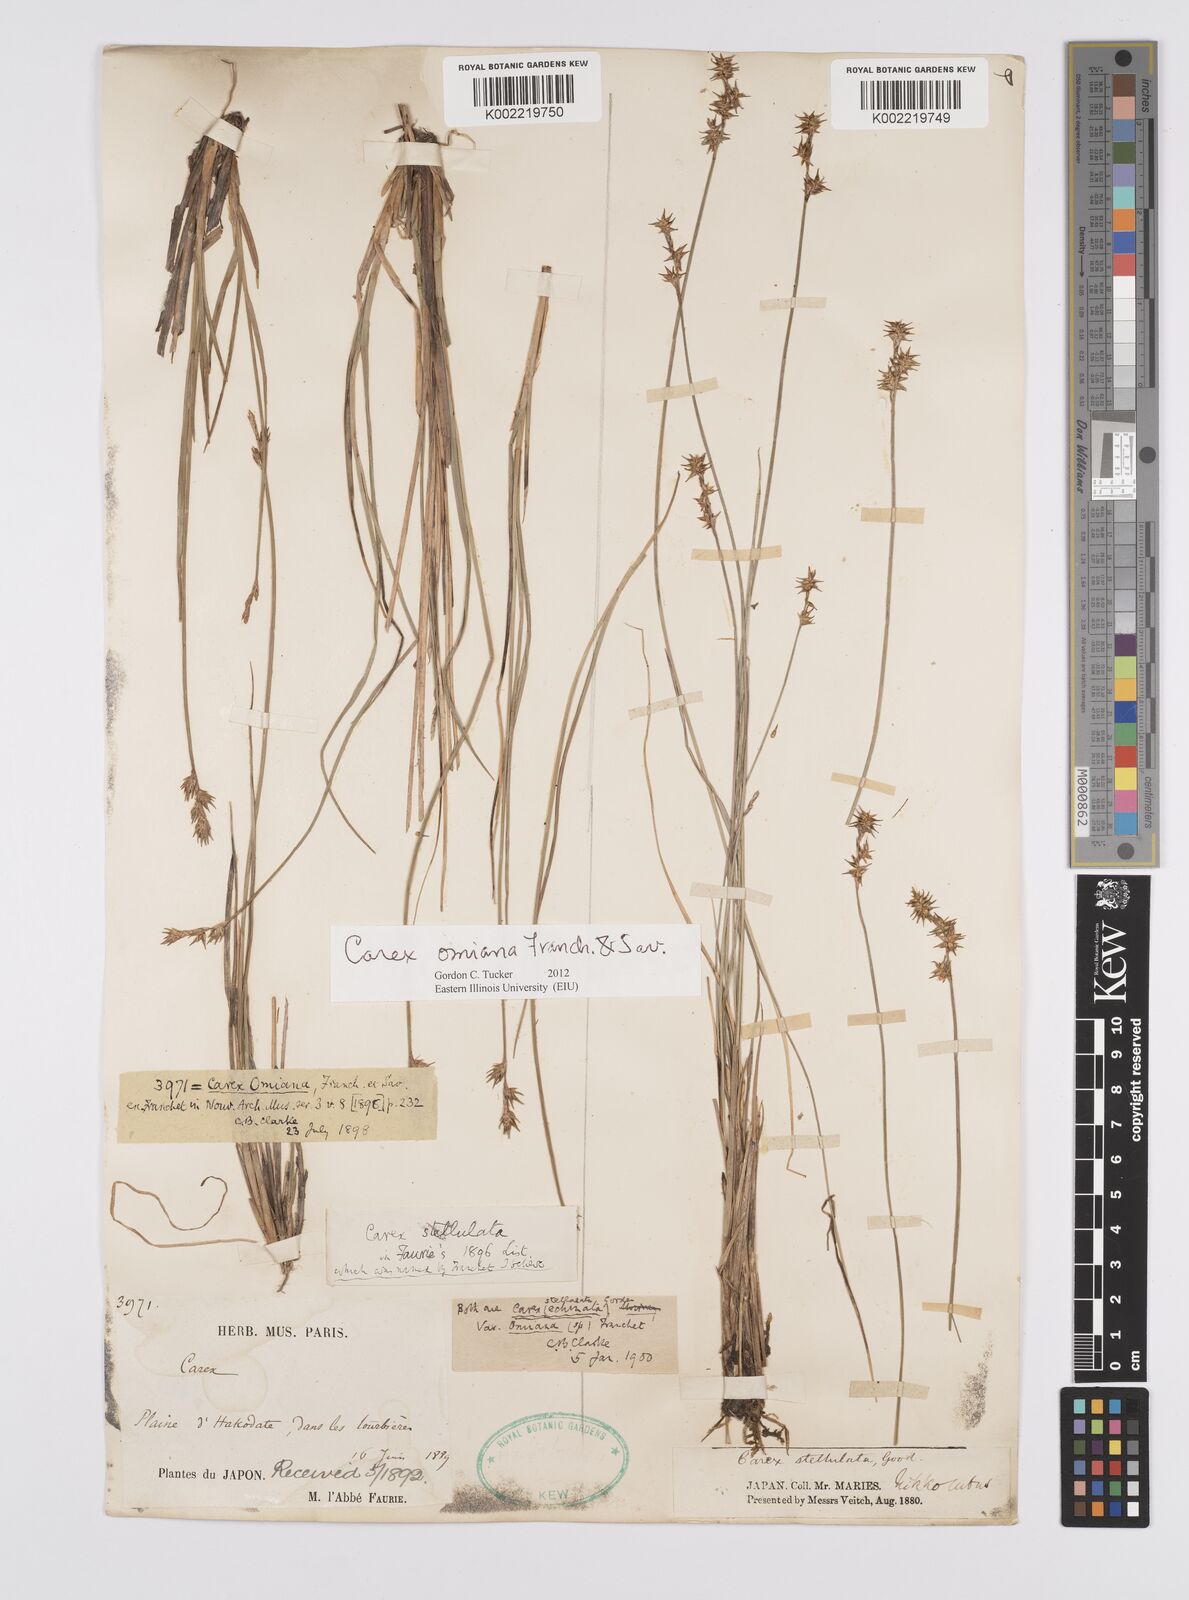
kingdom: Plantae
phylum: Tracheophyta
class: Liliopsida
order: Poales
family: Cyperaceae
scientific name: Cyperaceae
